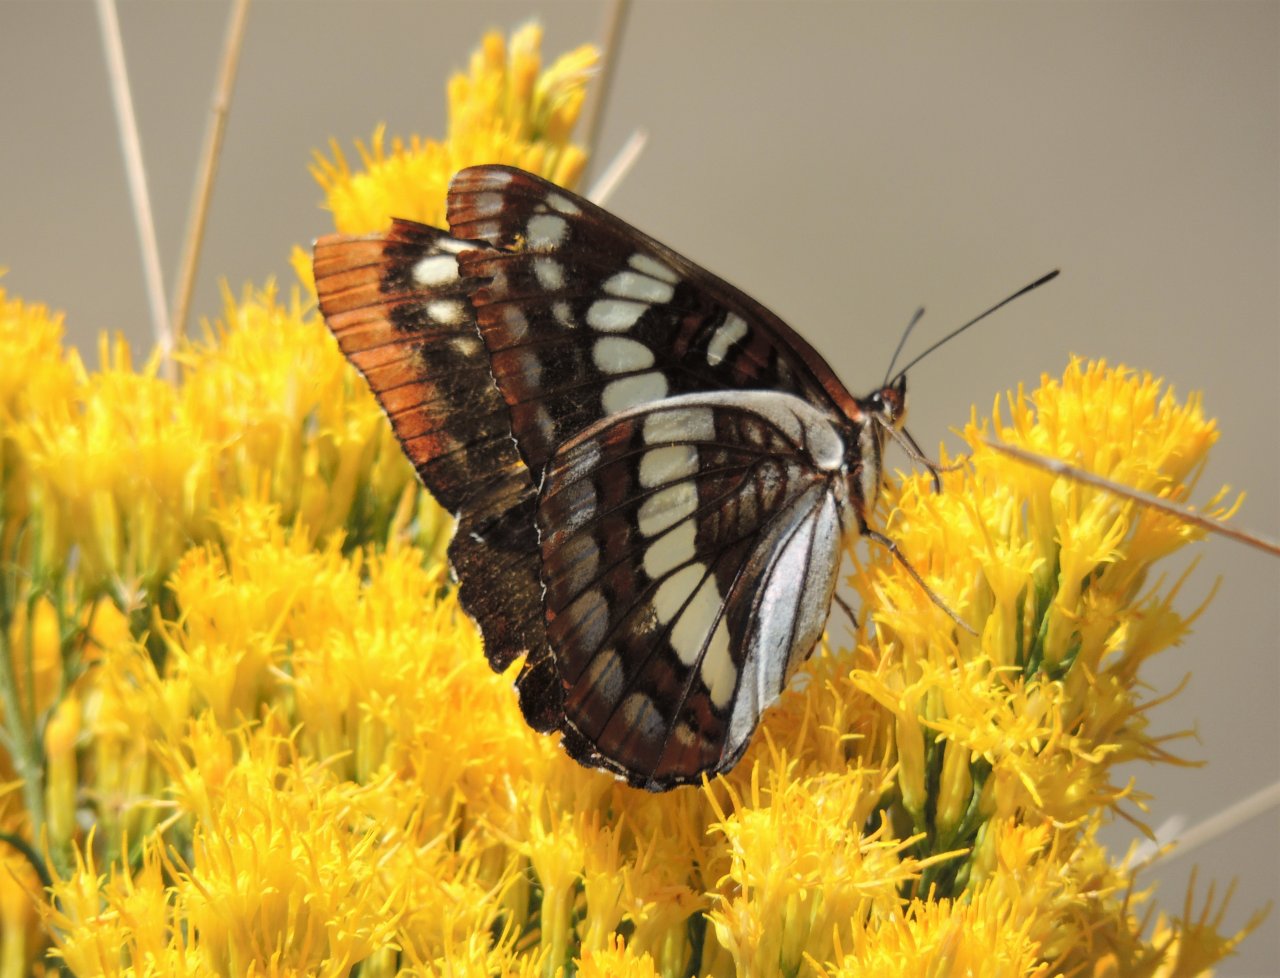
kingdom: Animalia
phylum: Arthropoda
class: Insecta
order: Lepidoptera
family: Nymphalidae
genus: Limenitis
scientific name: Limenitis lorquini
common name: Lorquin's Admiral
